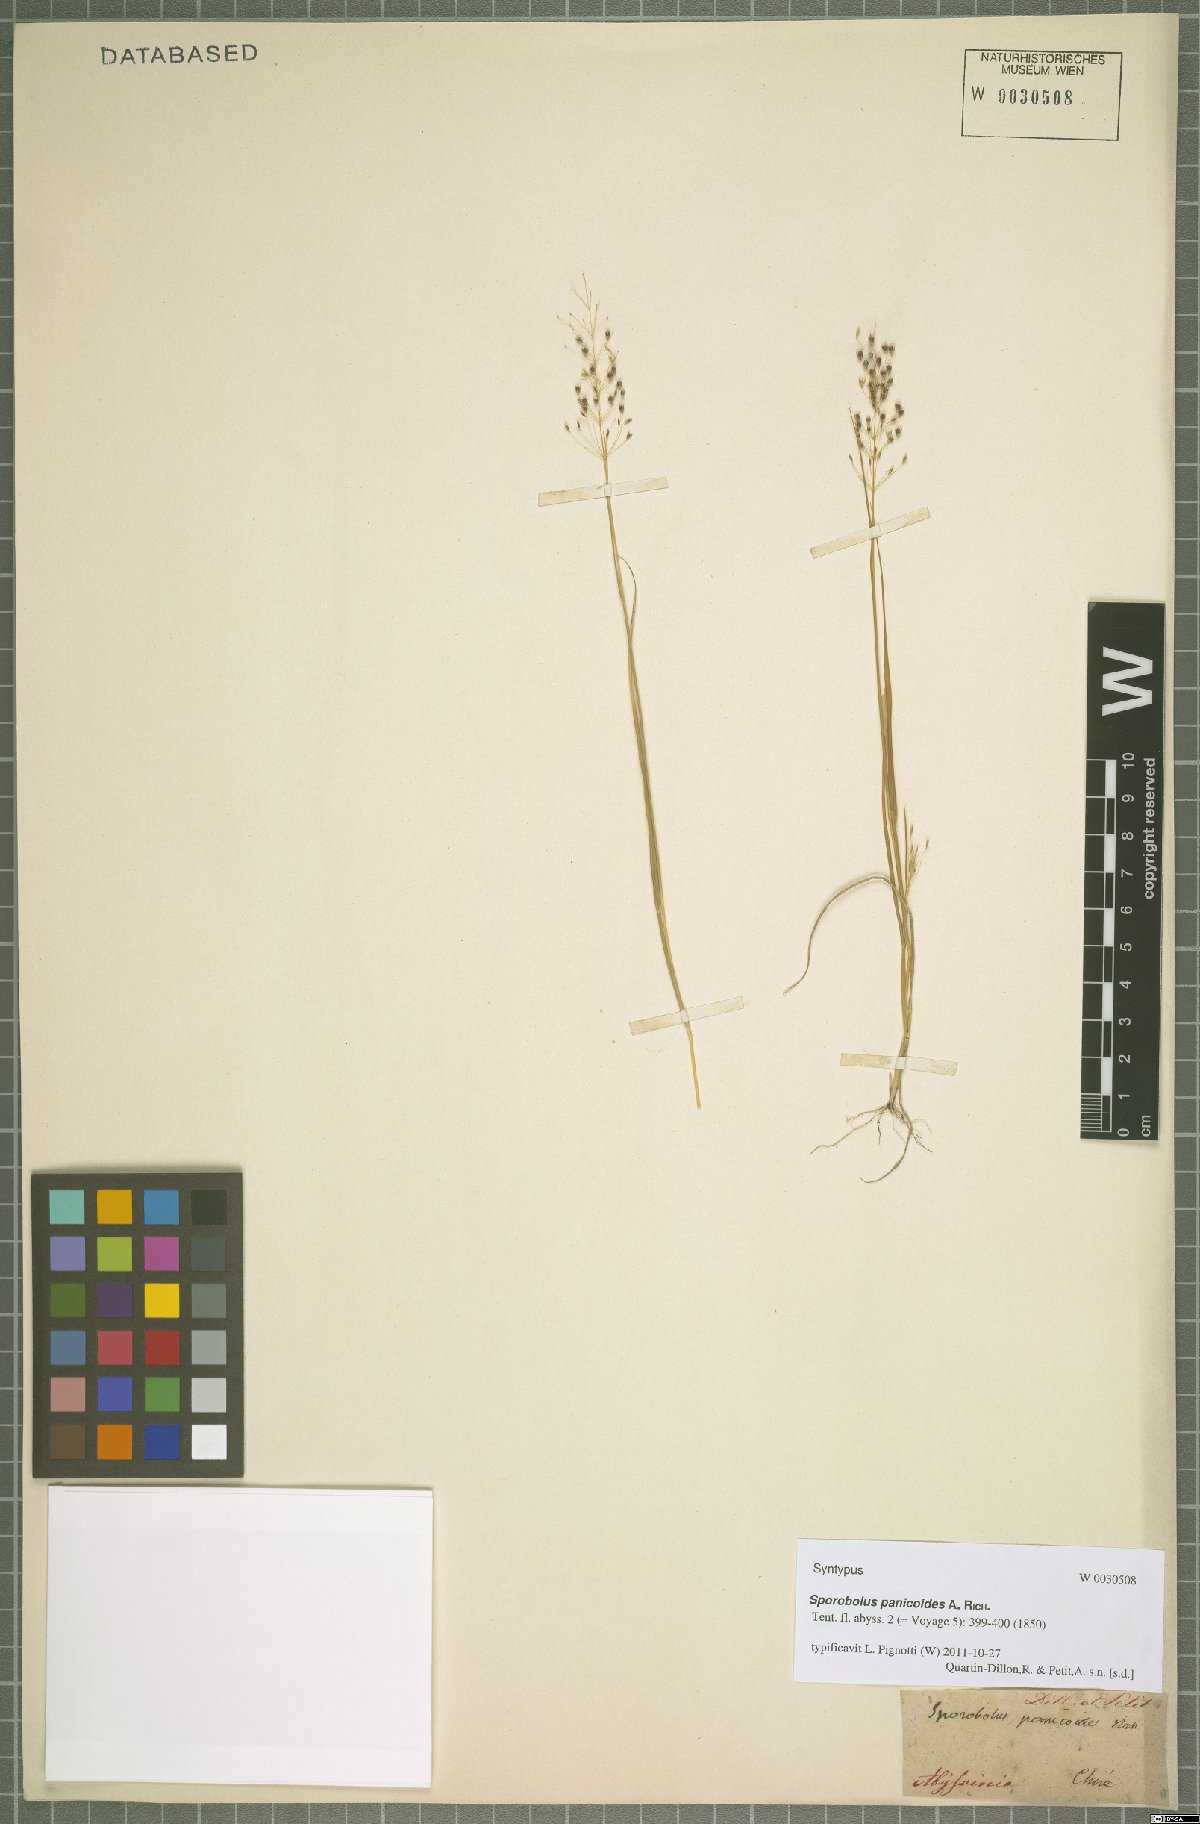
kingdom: Plantae
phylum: Tracheophyta
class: Liliopsida
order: Poales
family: Poaceae
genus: Sporobolus
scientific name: Sporobolus panicoides
